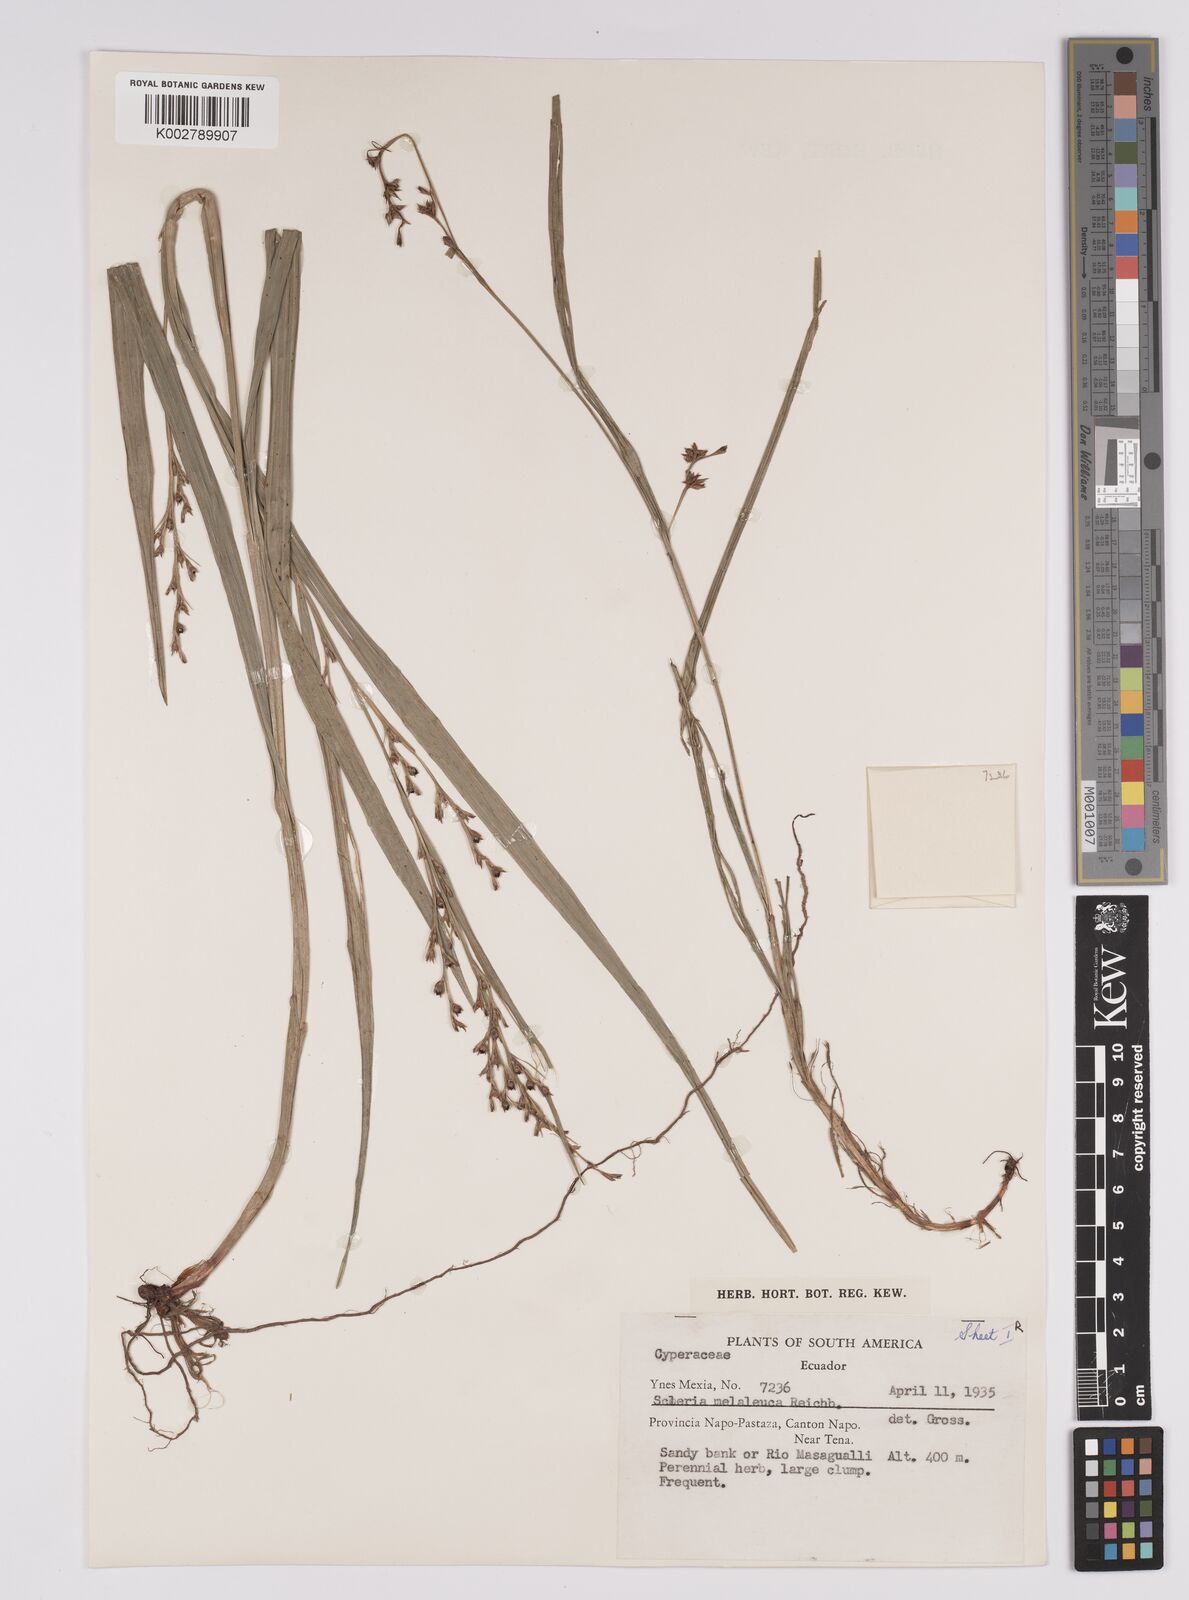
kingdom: Plantae
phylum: Tracheophyta
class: Liliopsida
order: Poales
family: Cyperaceae
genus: Scleria
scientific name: Scleria gaertneri
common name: Cortadera blanca
